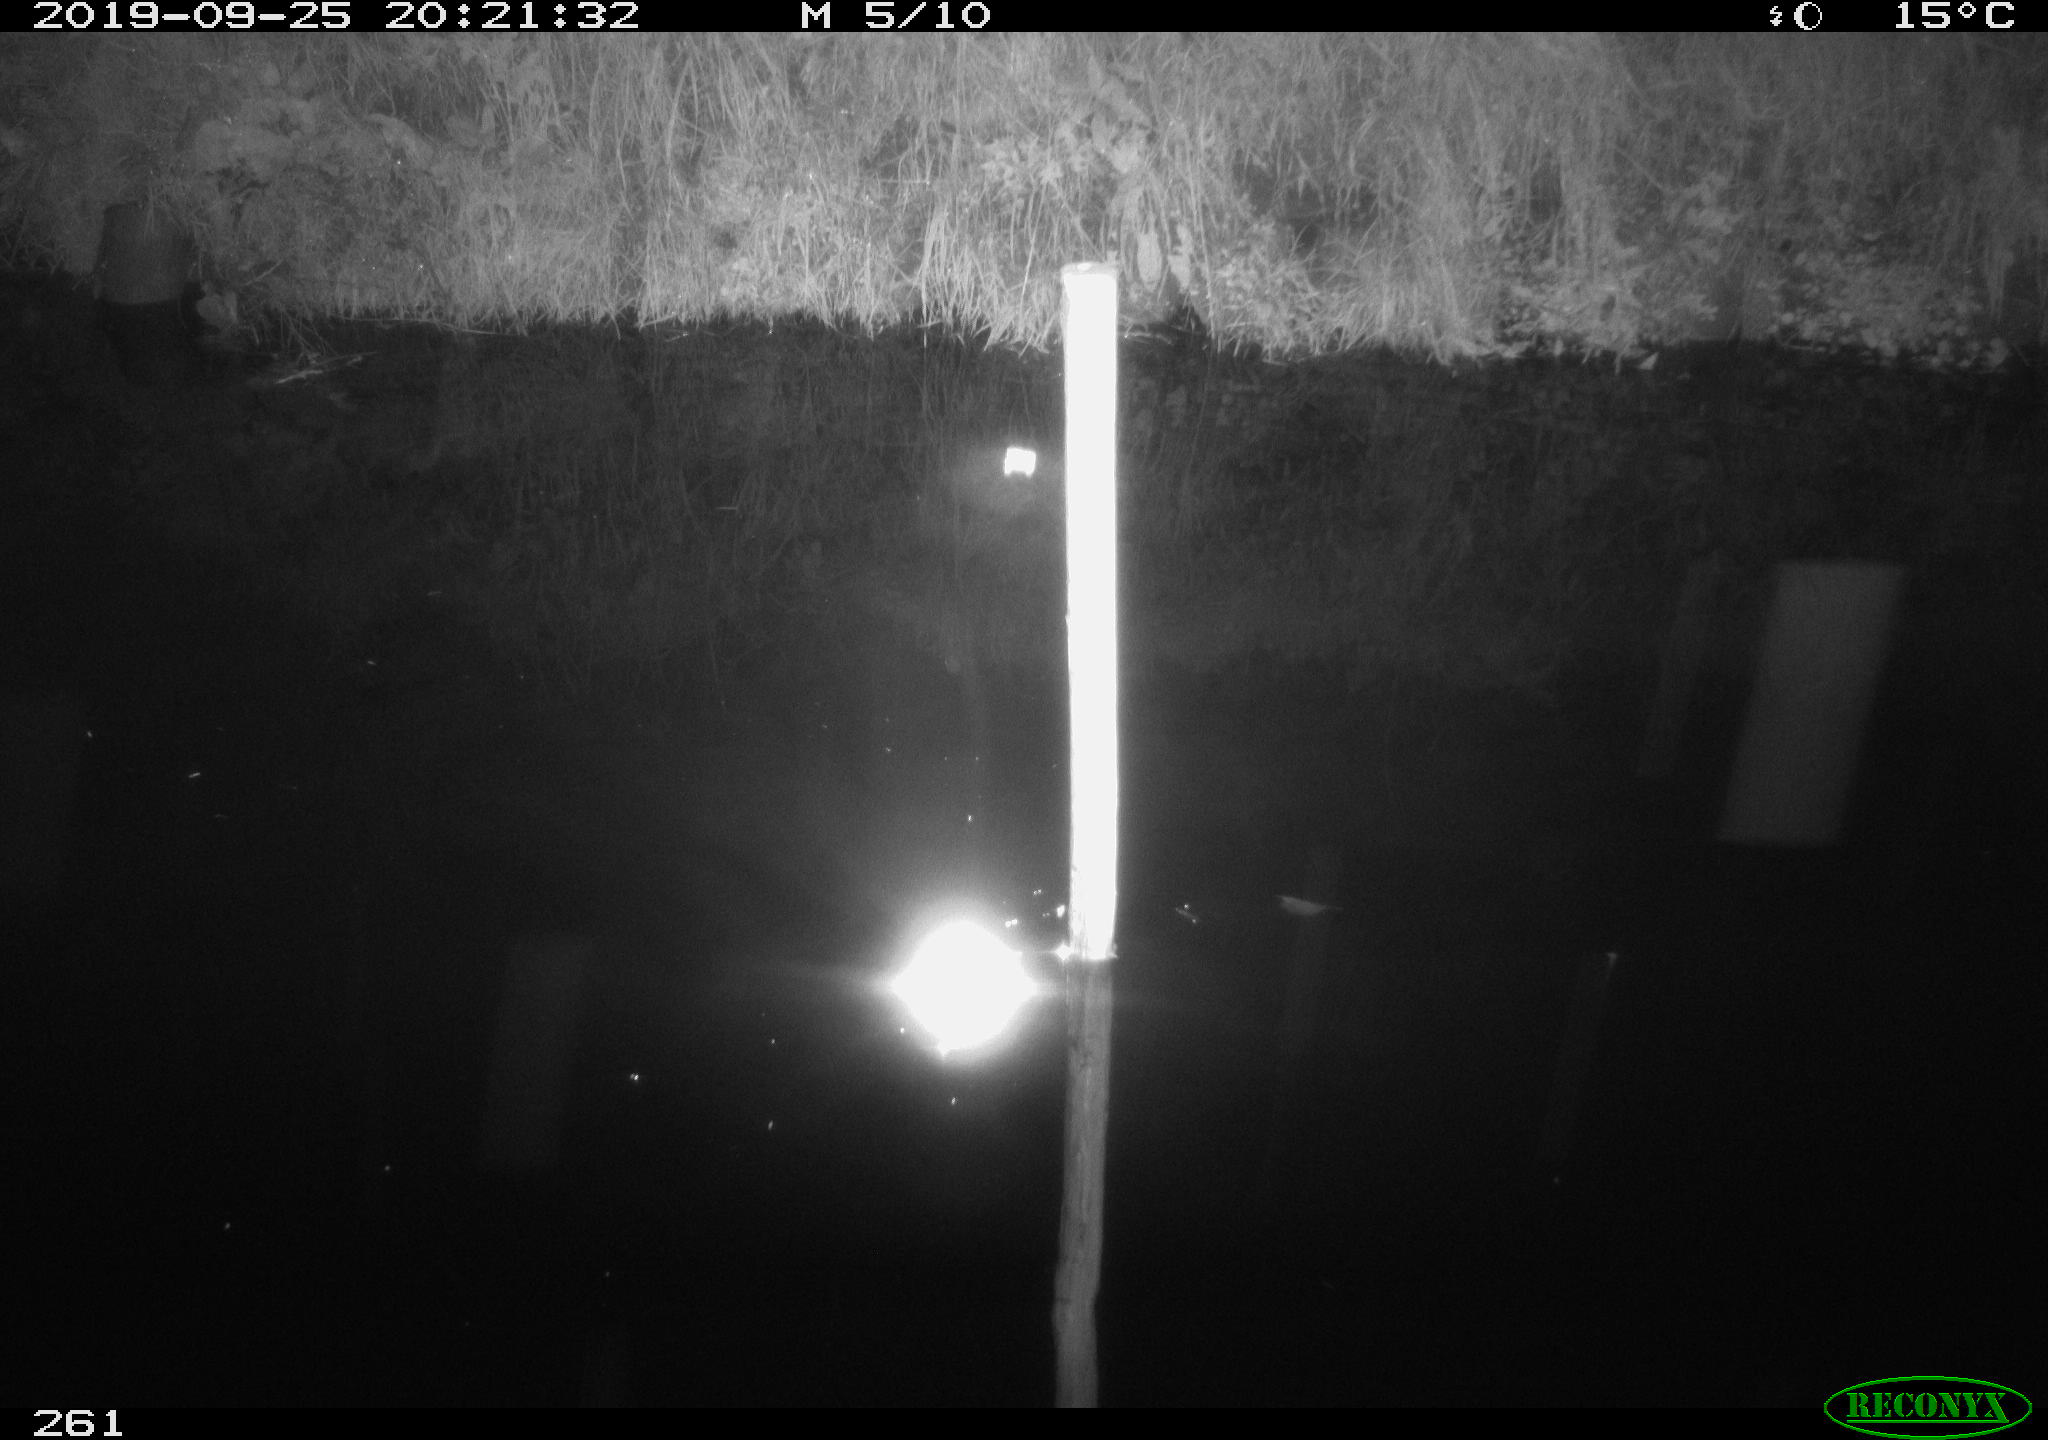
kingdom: Animalia
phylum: Chordata
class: Aves
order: Anseriformes
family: Anatidae
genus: Anas
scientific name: Anas platyrhynchos
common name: Mallard
